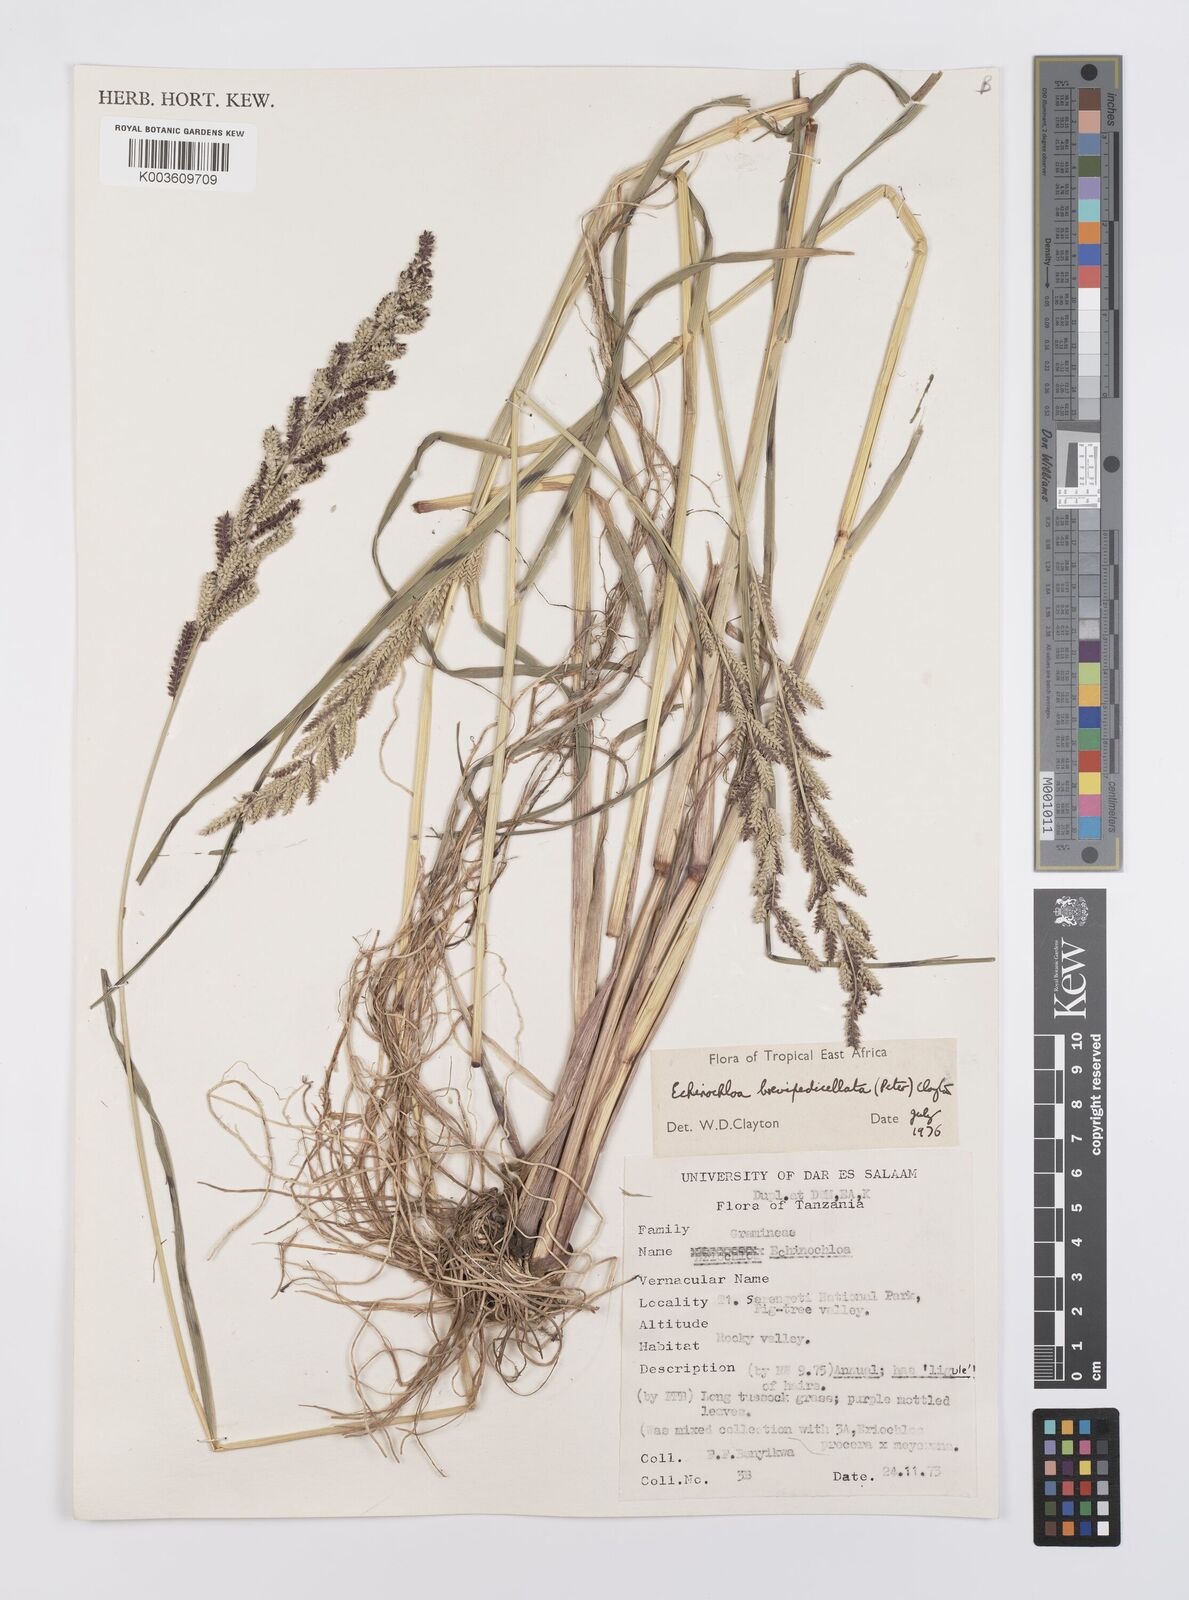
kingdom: Plantae
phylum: Tracheophyta
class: Liliopsida
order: Poales
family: Poaceae
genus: Echinochloa
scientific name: Echinochloa brevipedicellata
